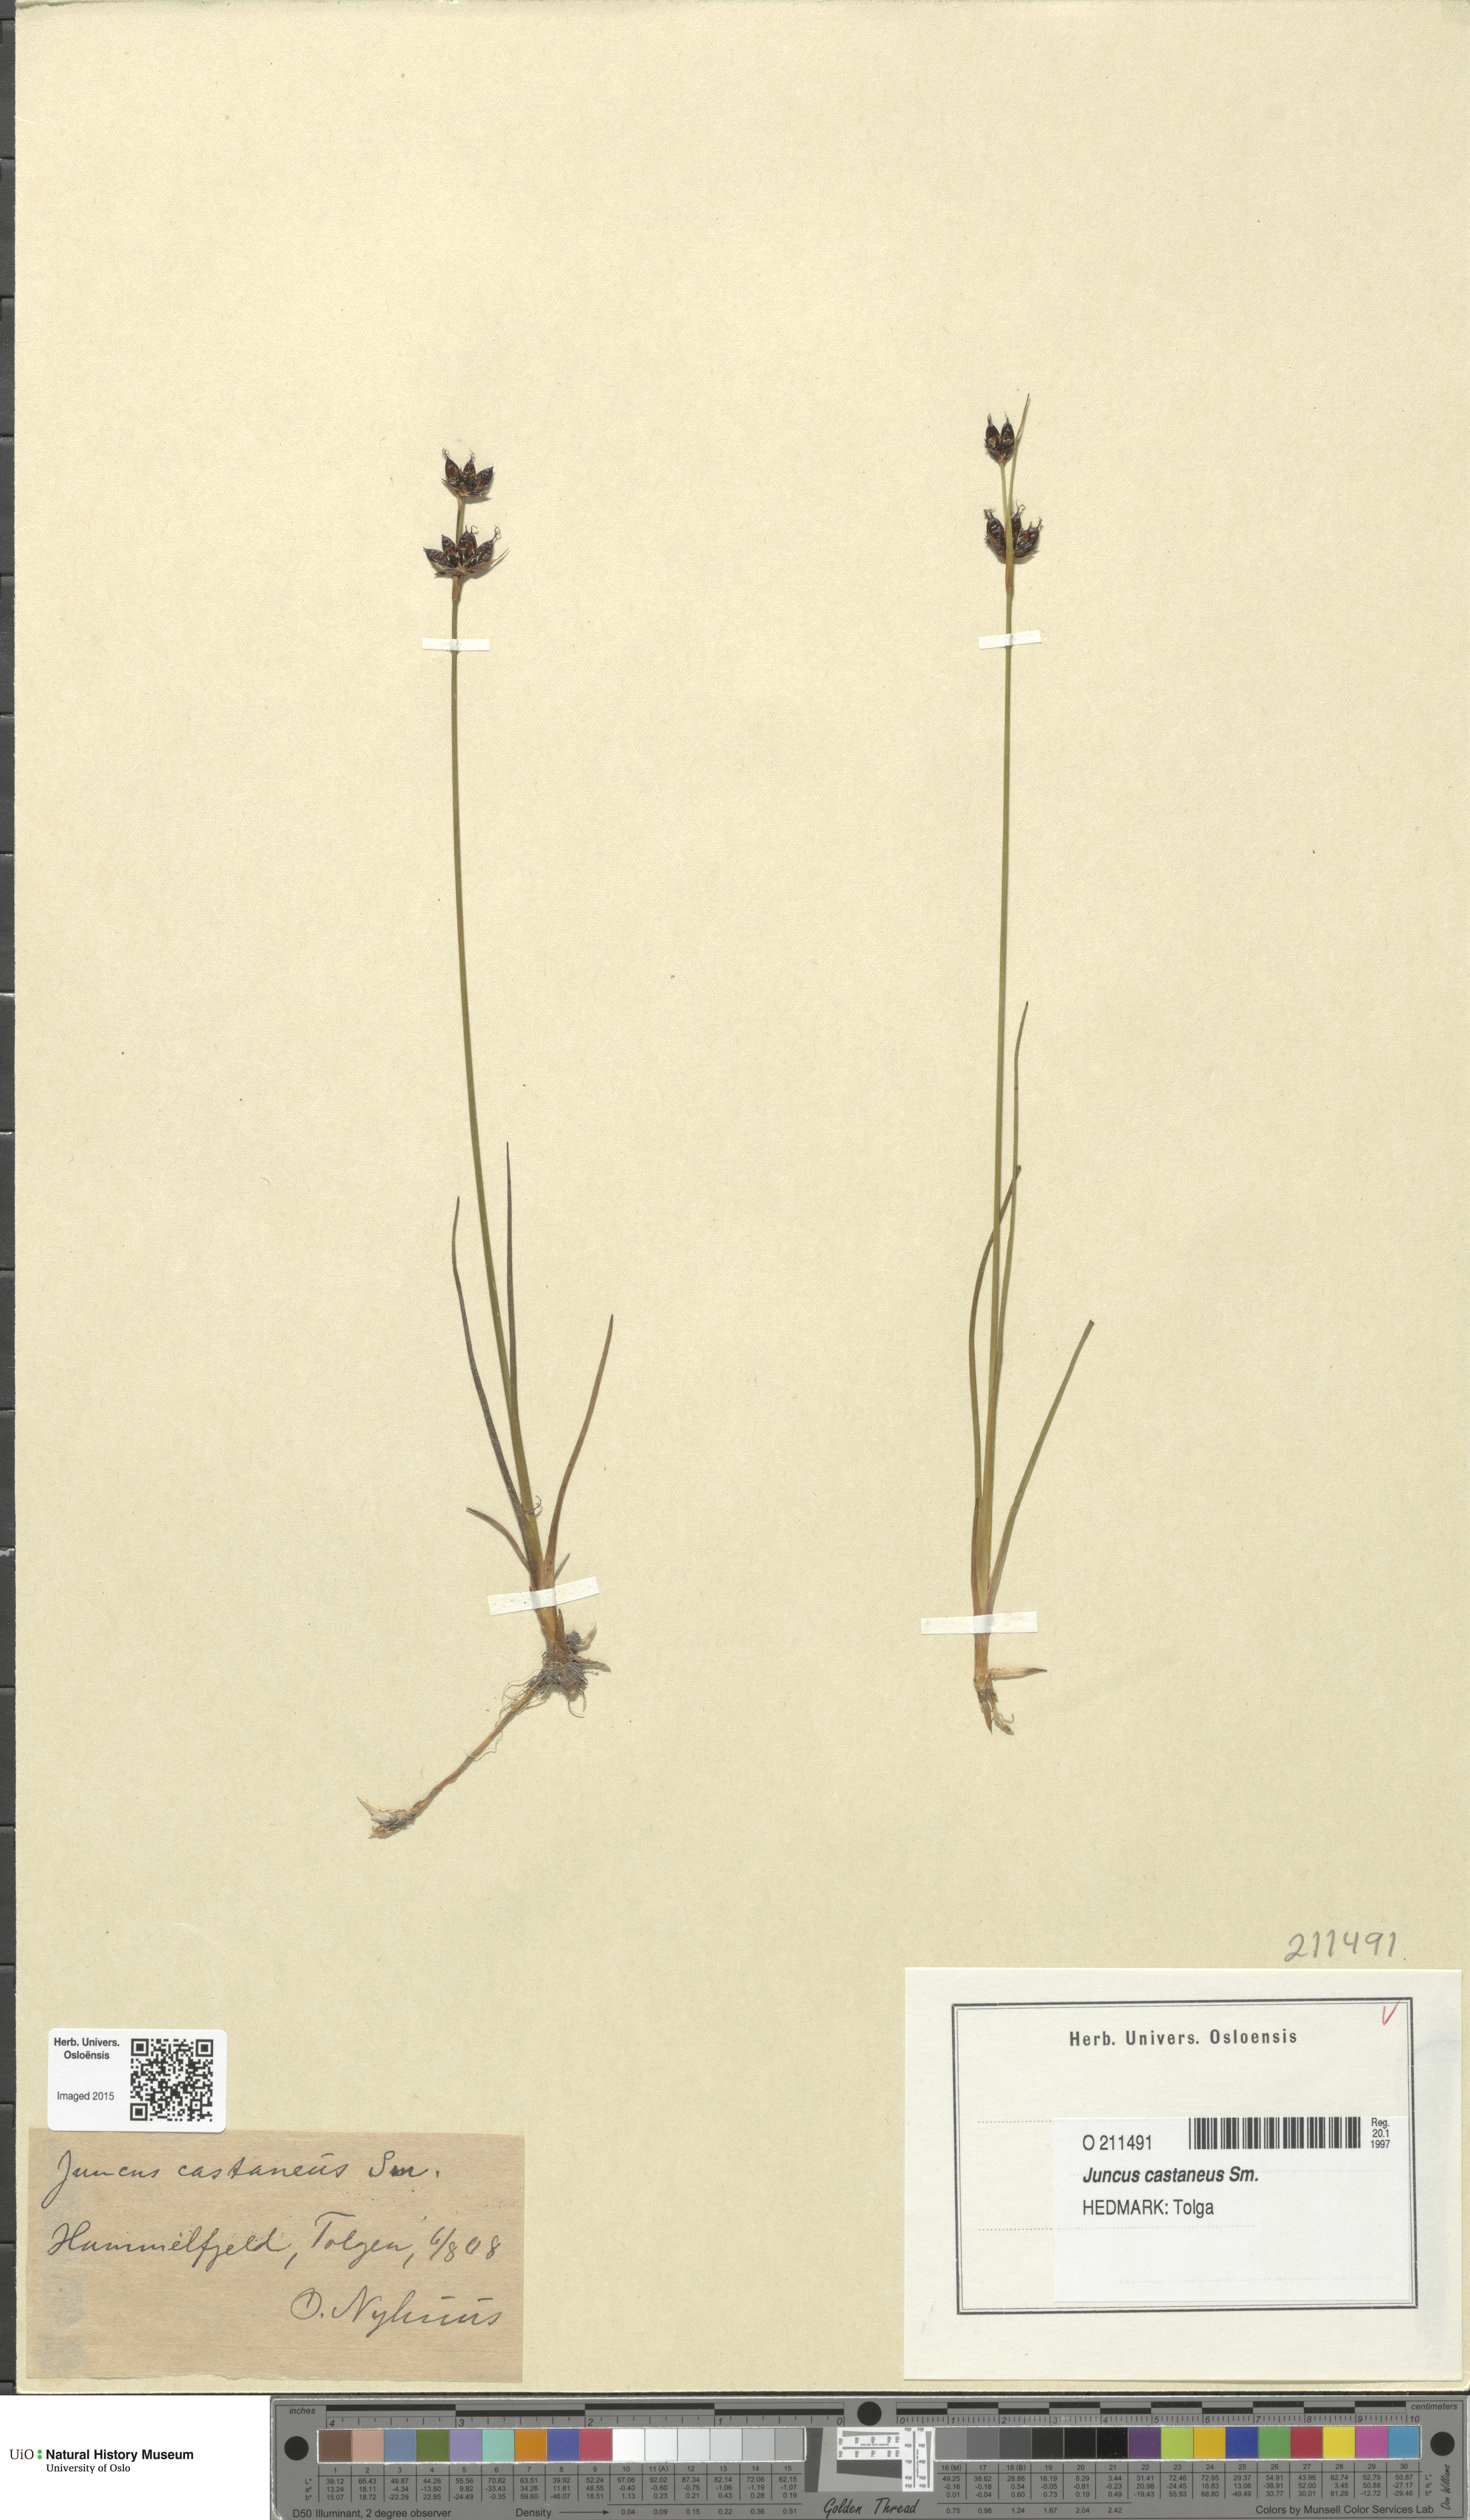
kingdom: Plantae
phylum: Tracheophyta
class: Liliopsida
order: Poales
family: Juncaceae
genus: Juncus
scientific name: Juncus castaneus
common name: Chestnut rush
